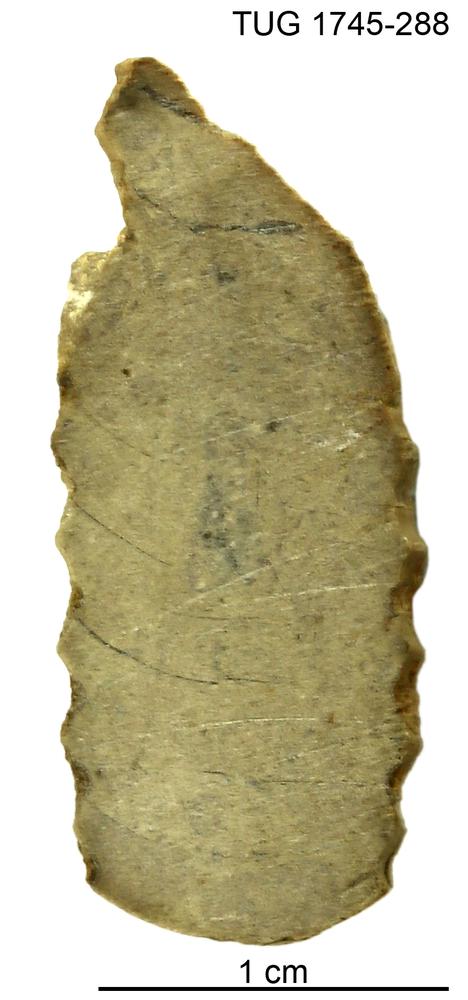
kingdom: Animalia
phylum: Mollusca
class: Cephalopoda
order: Nautilida
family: Nautilidae
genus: Dawsonoceras
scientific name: Dawsonoceras
